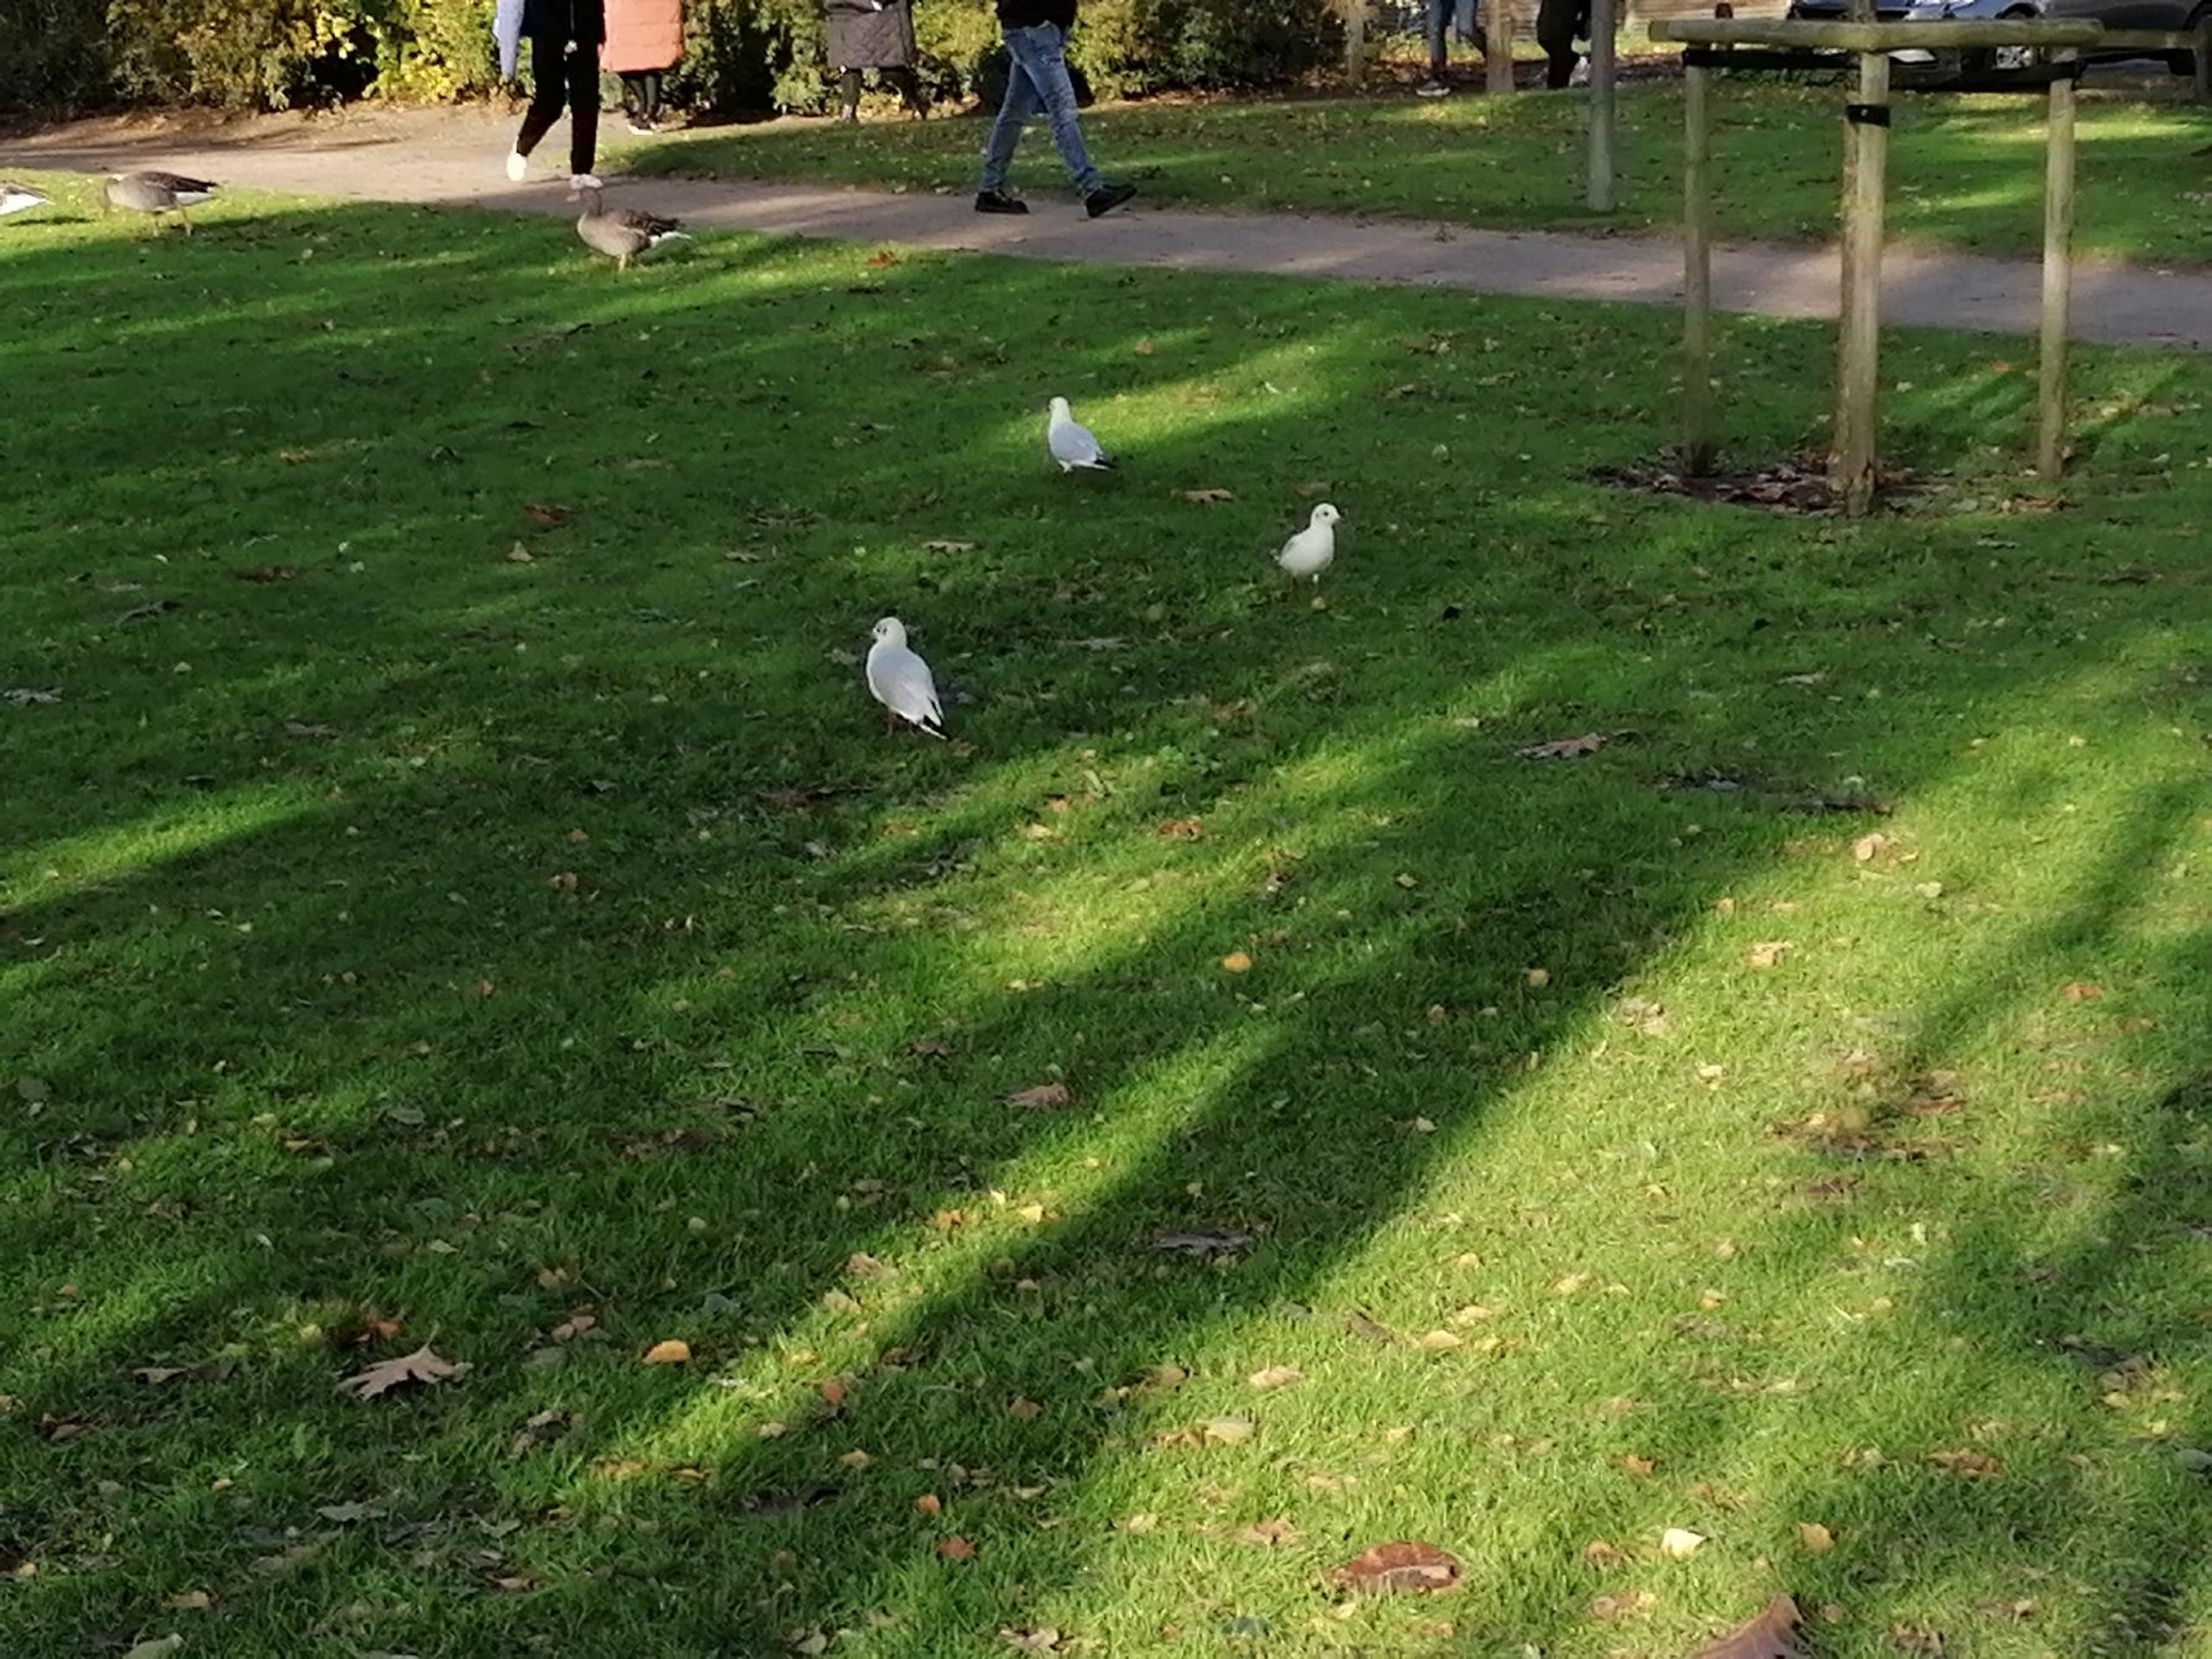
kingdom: Animalia
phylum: Chordata
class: Aves
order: Charadriiformes
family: Laridae
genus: Chroicocephalus
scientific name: Chroicocephalus ridibundus
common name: Hættemåge
